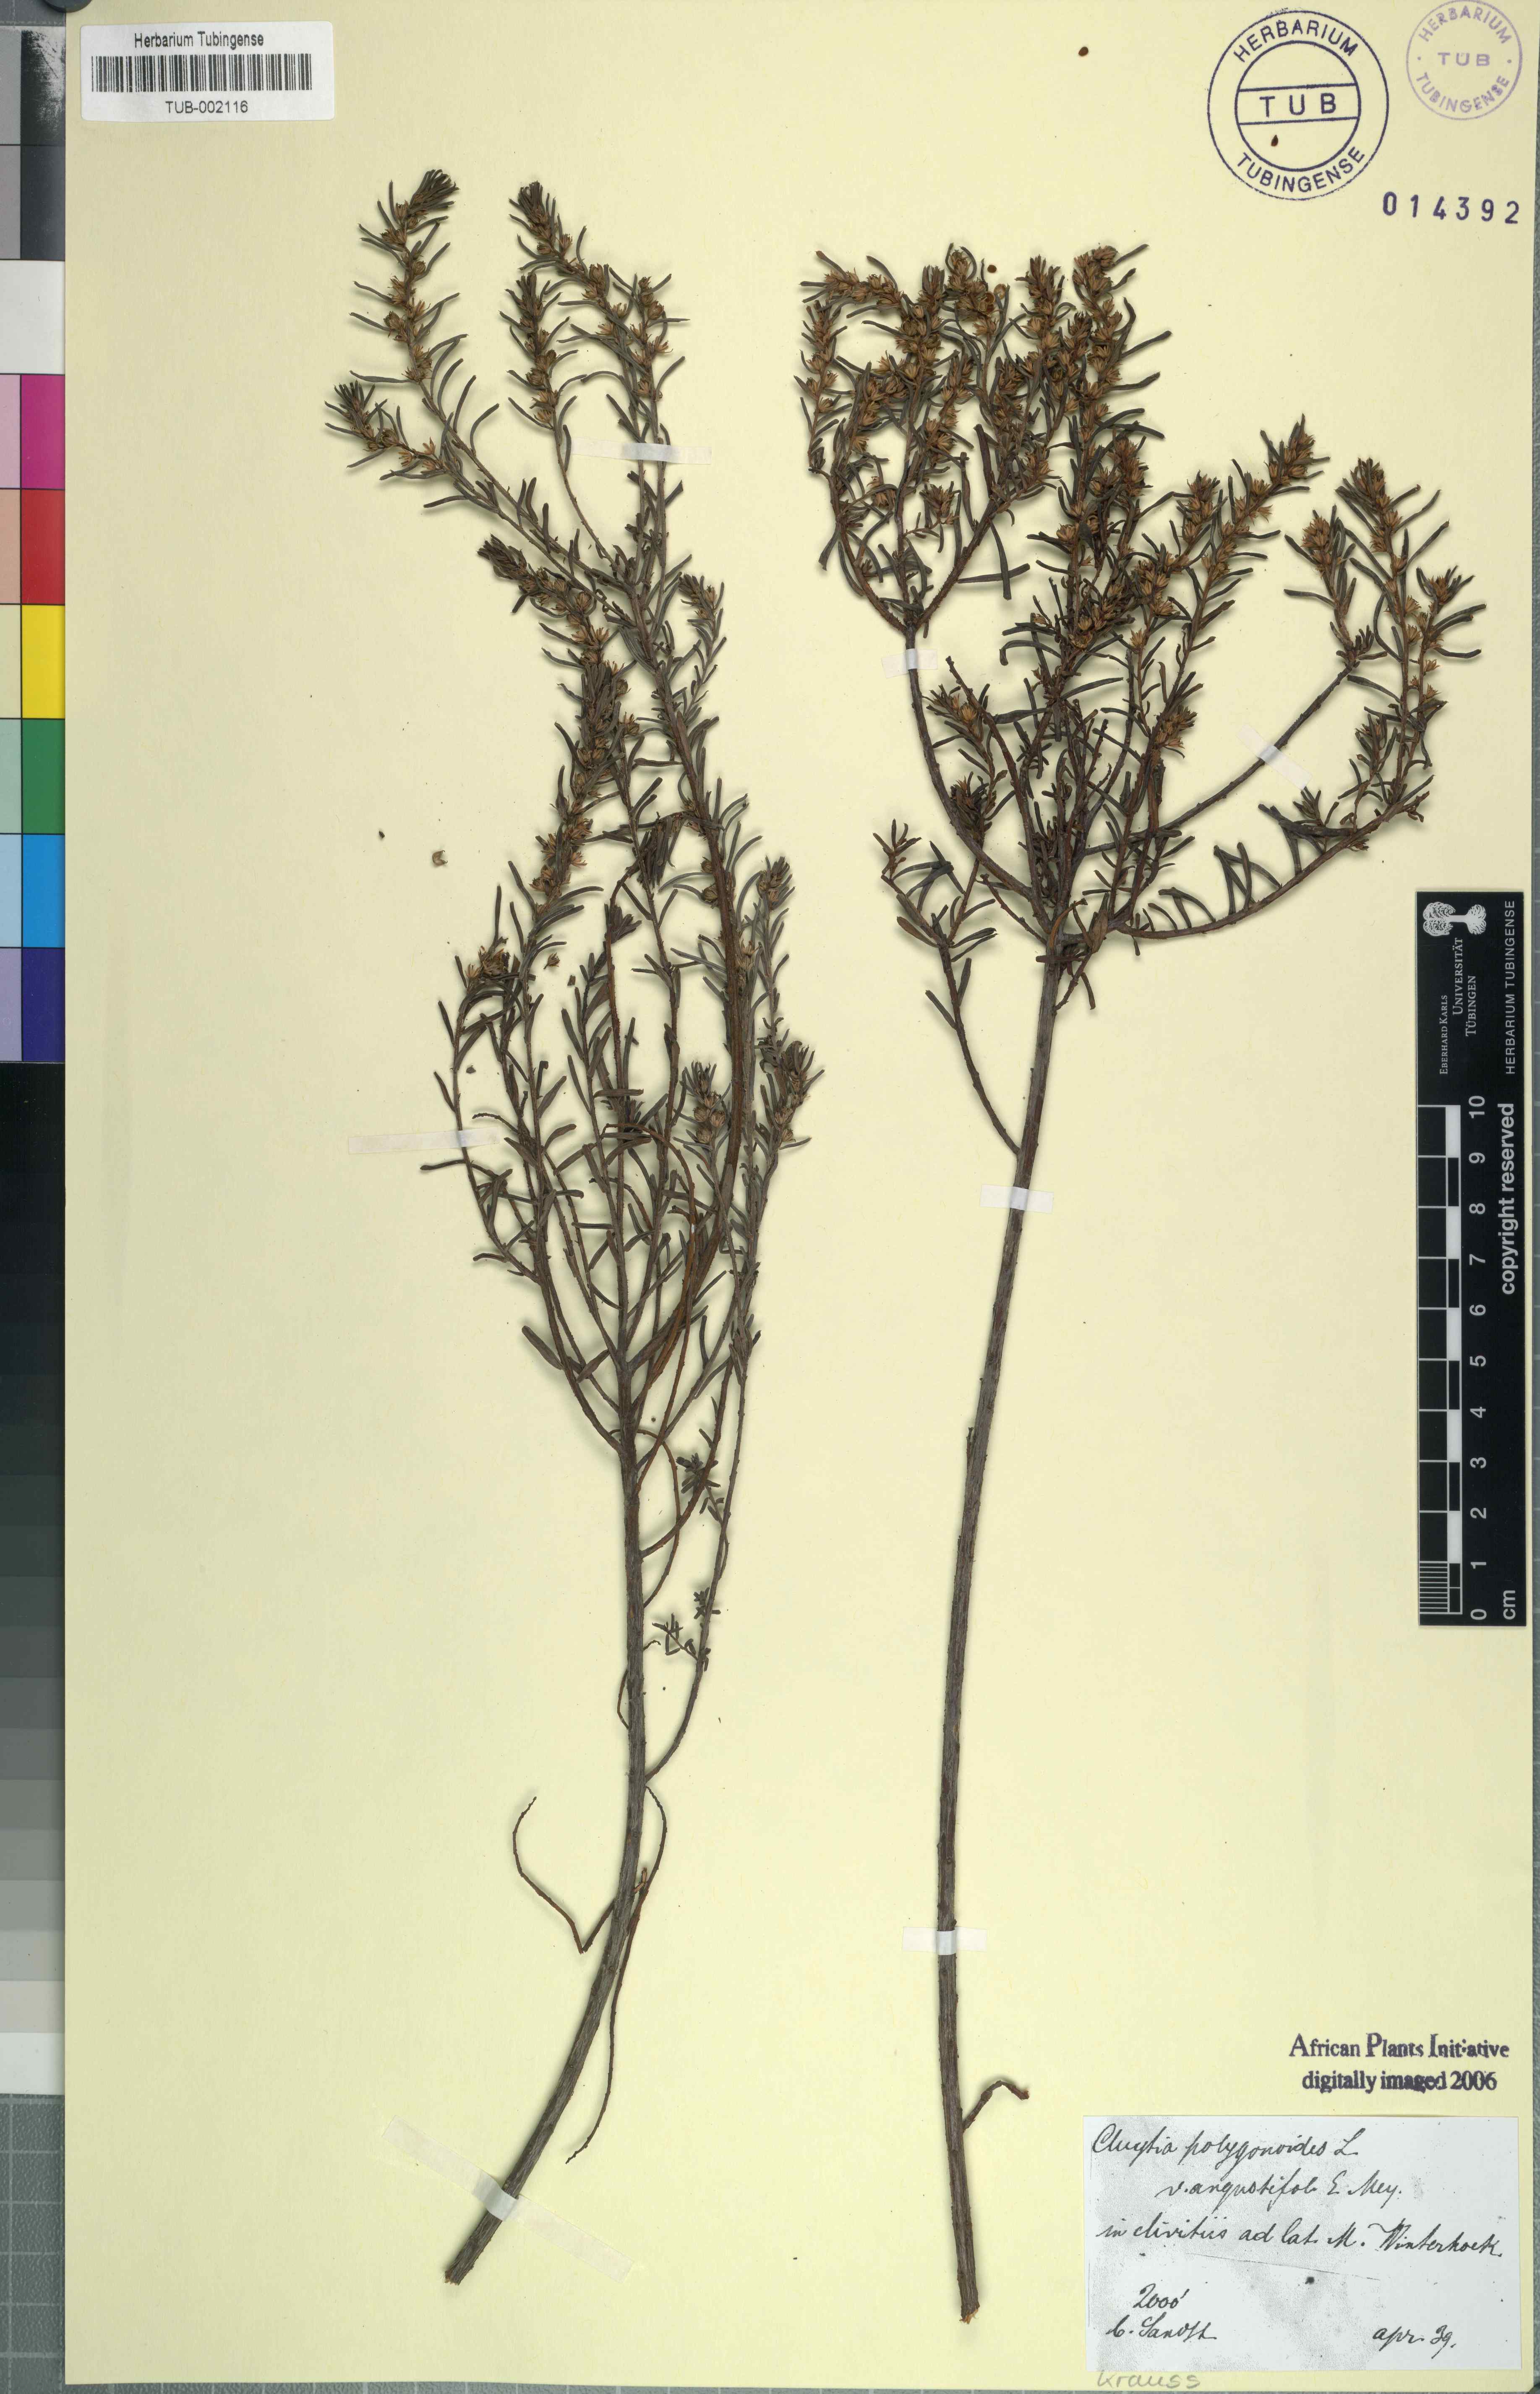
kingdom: Plantae
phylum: Tracheophyta
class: Magnoliopsida
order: Malpighiales
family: Peraceae
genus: Clutia
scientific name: Clutia polygonoides
